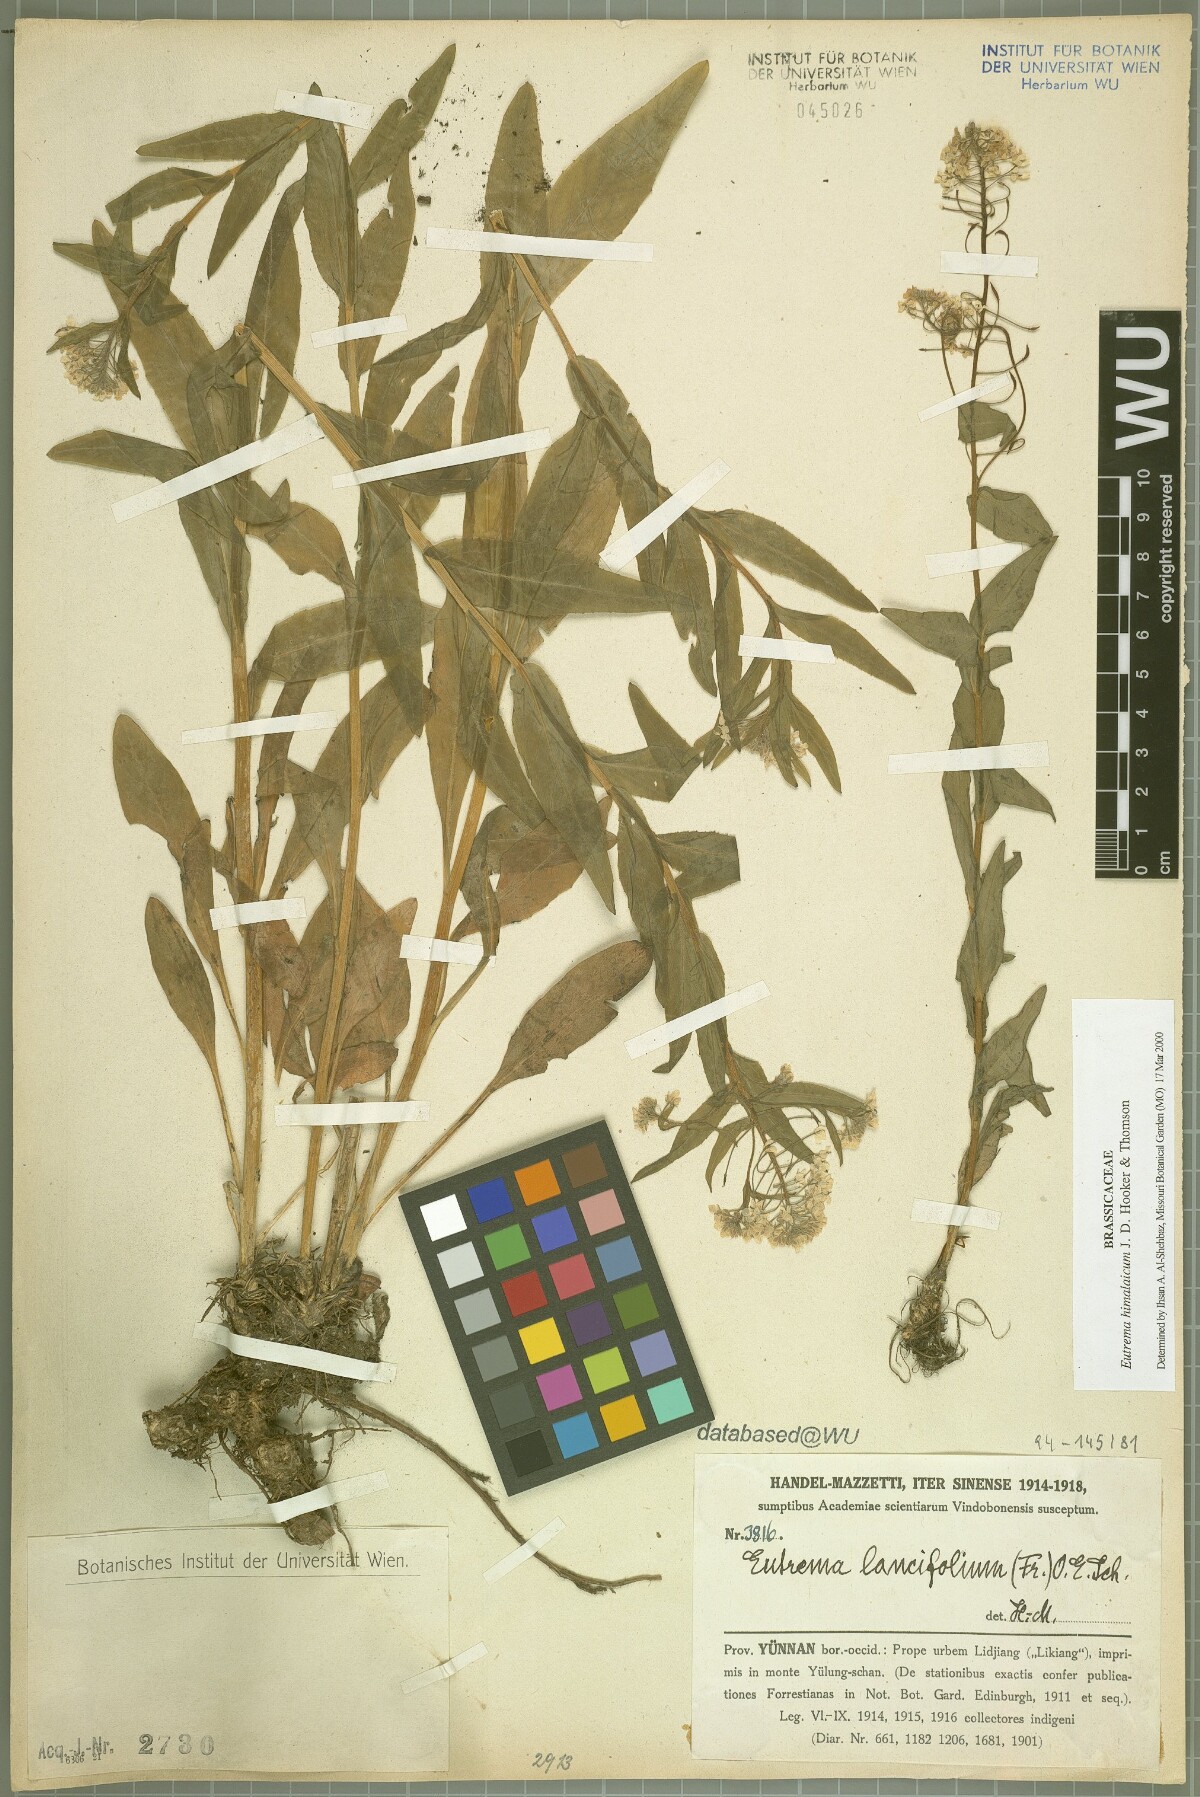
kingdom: Plantae
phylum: Tracheophyta
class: Magnoliopsida
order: Brassicales
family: Brassicaceae
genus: Eutrema
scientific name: Eutrema himalaicum
